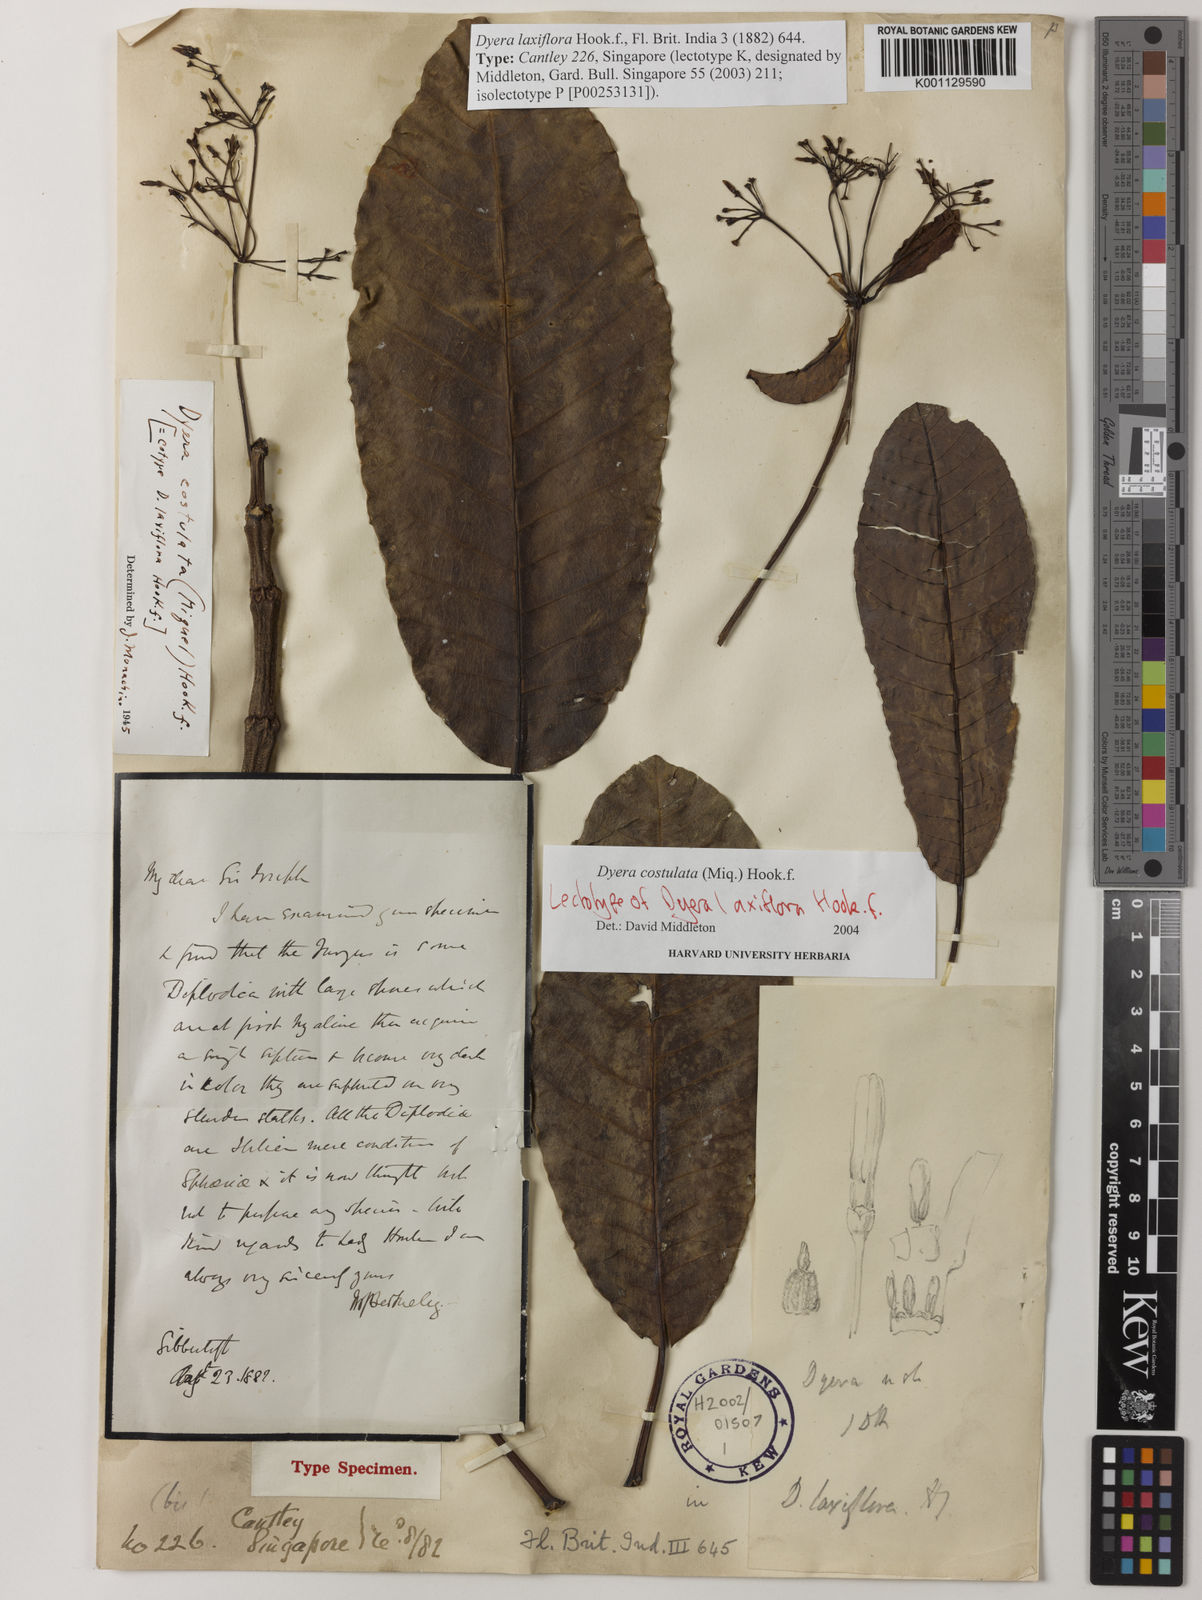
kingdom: Plantae
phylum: Tracheophyta
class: Magnoliopsida
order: Gentianales
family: Apocynaceae
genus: Dyera
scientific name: Dyera costulata
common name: Hill jelutong
